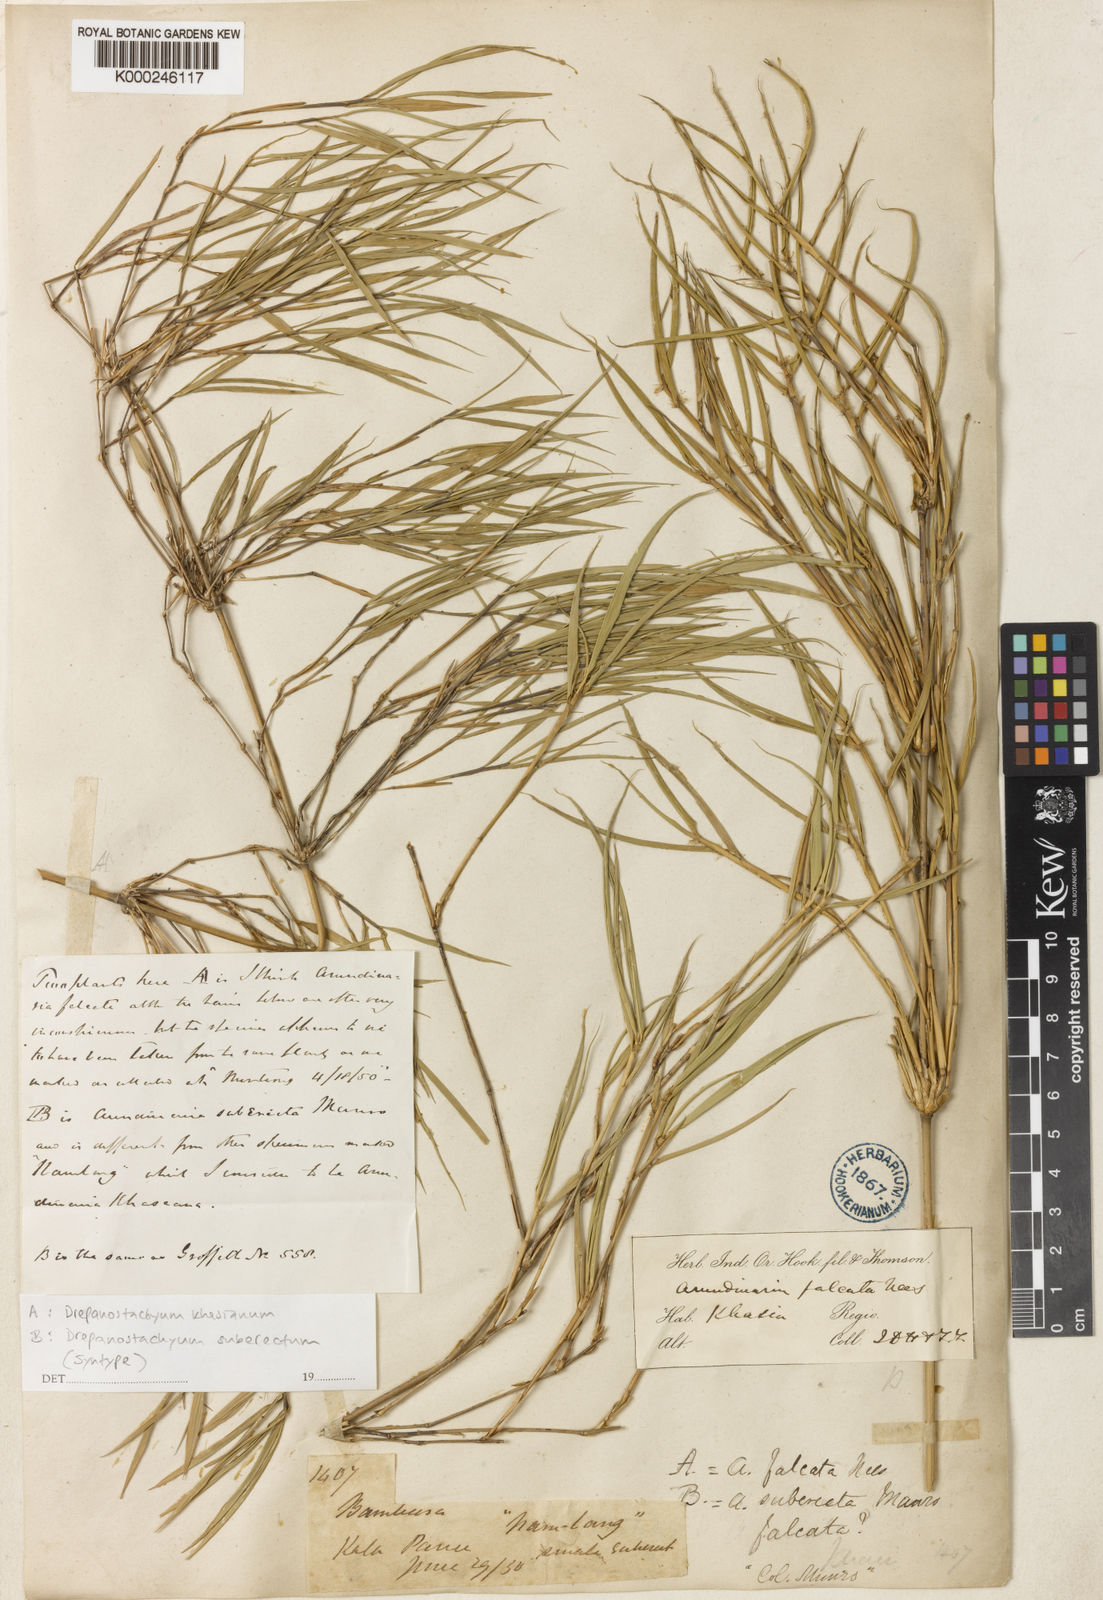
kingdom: Plantae
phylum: Tracheophyta
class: Liliopsida
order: Poales
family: Poaceae
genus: Drepanostachyum
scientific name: Drepanostachyum khasianum
